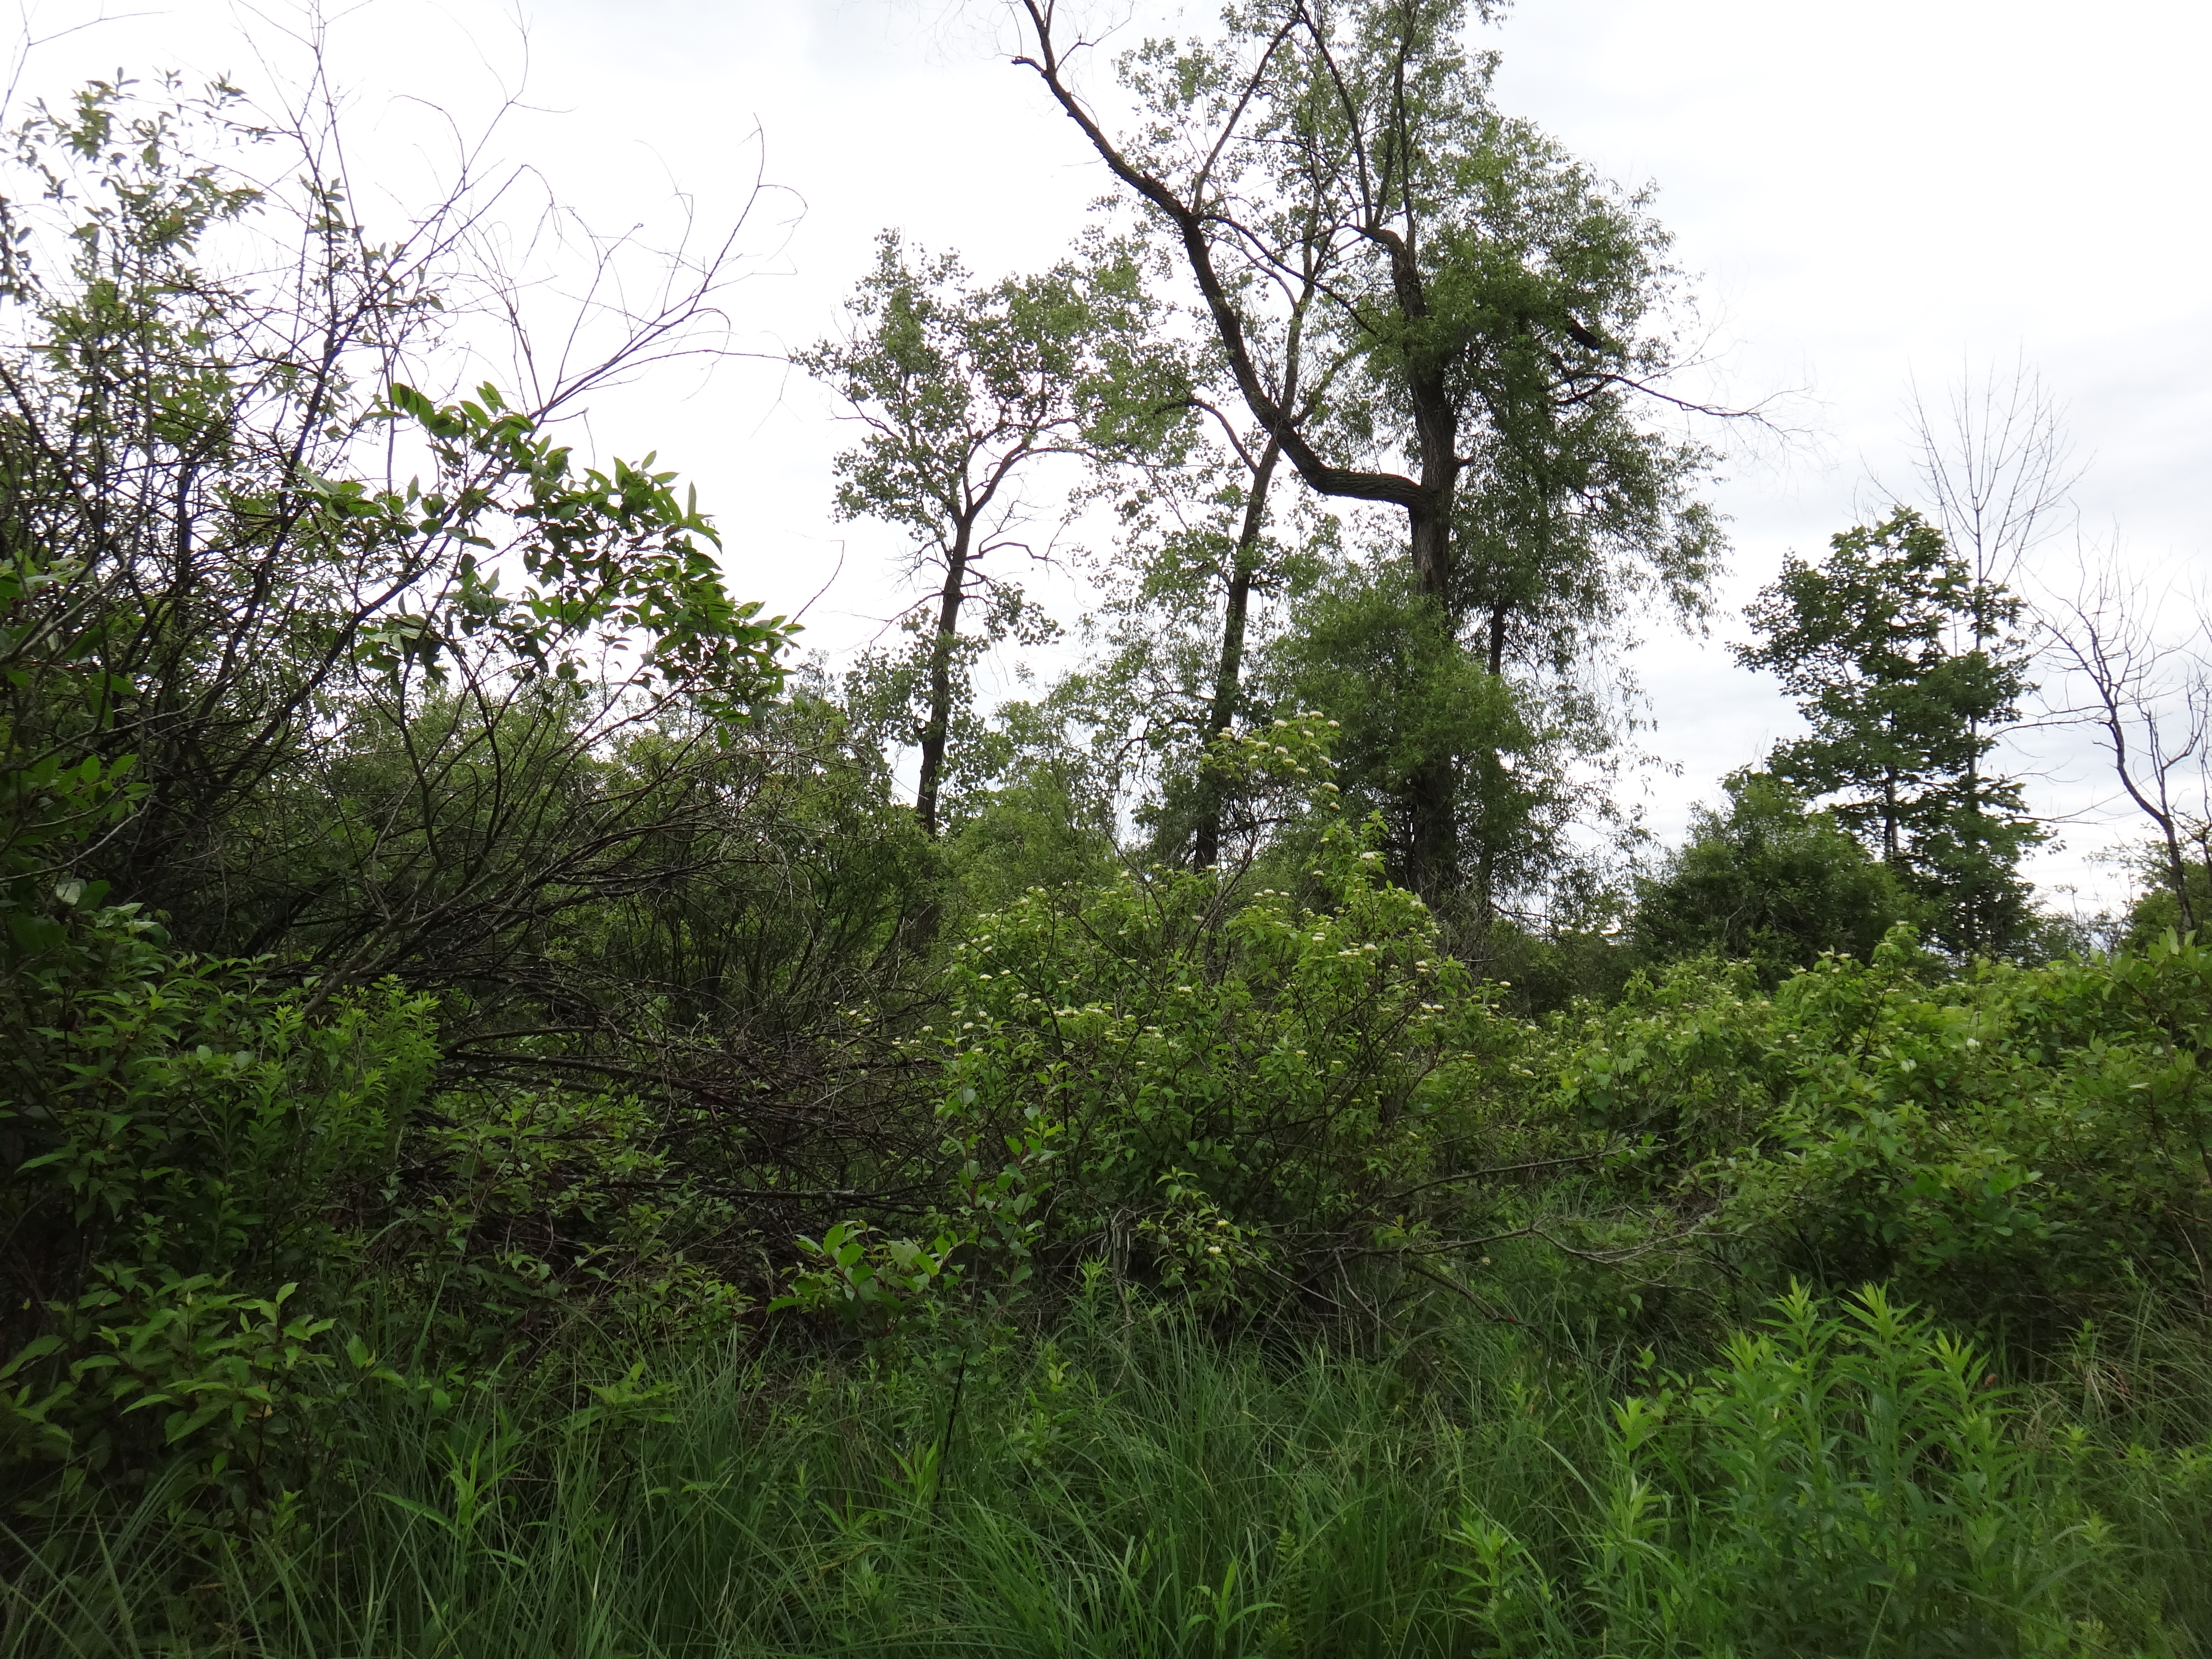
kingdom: Plantae
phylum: Tracheophyta
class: Magnoliopsida
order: Asterales
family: Campanulaceae
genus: Palustricodon
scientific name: Palustricodon aparinoides
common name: Bedstraw bellflower
